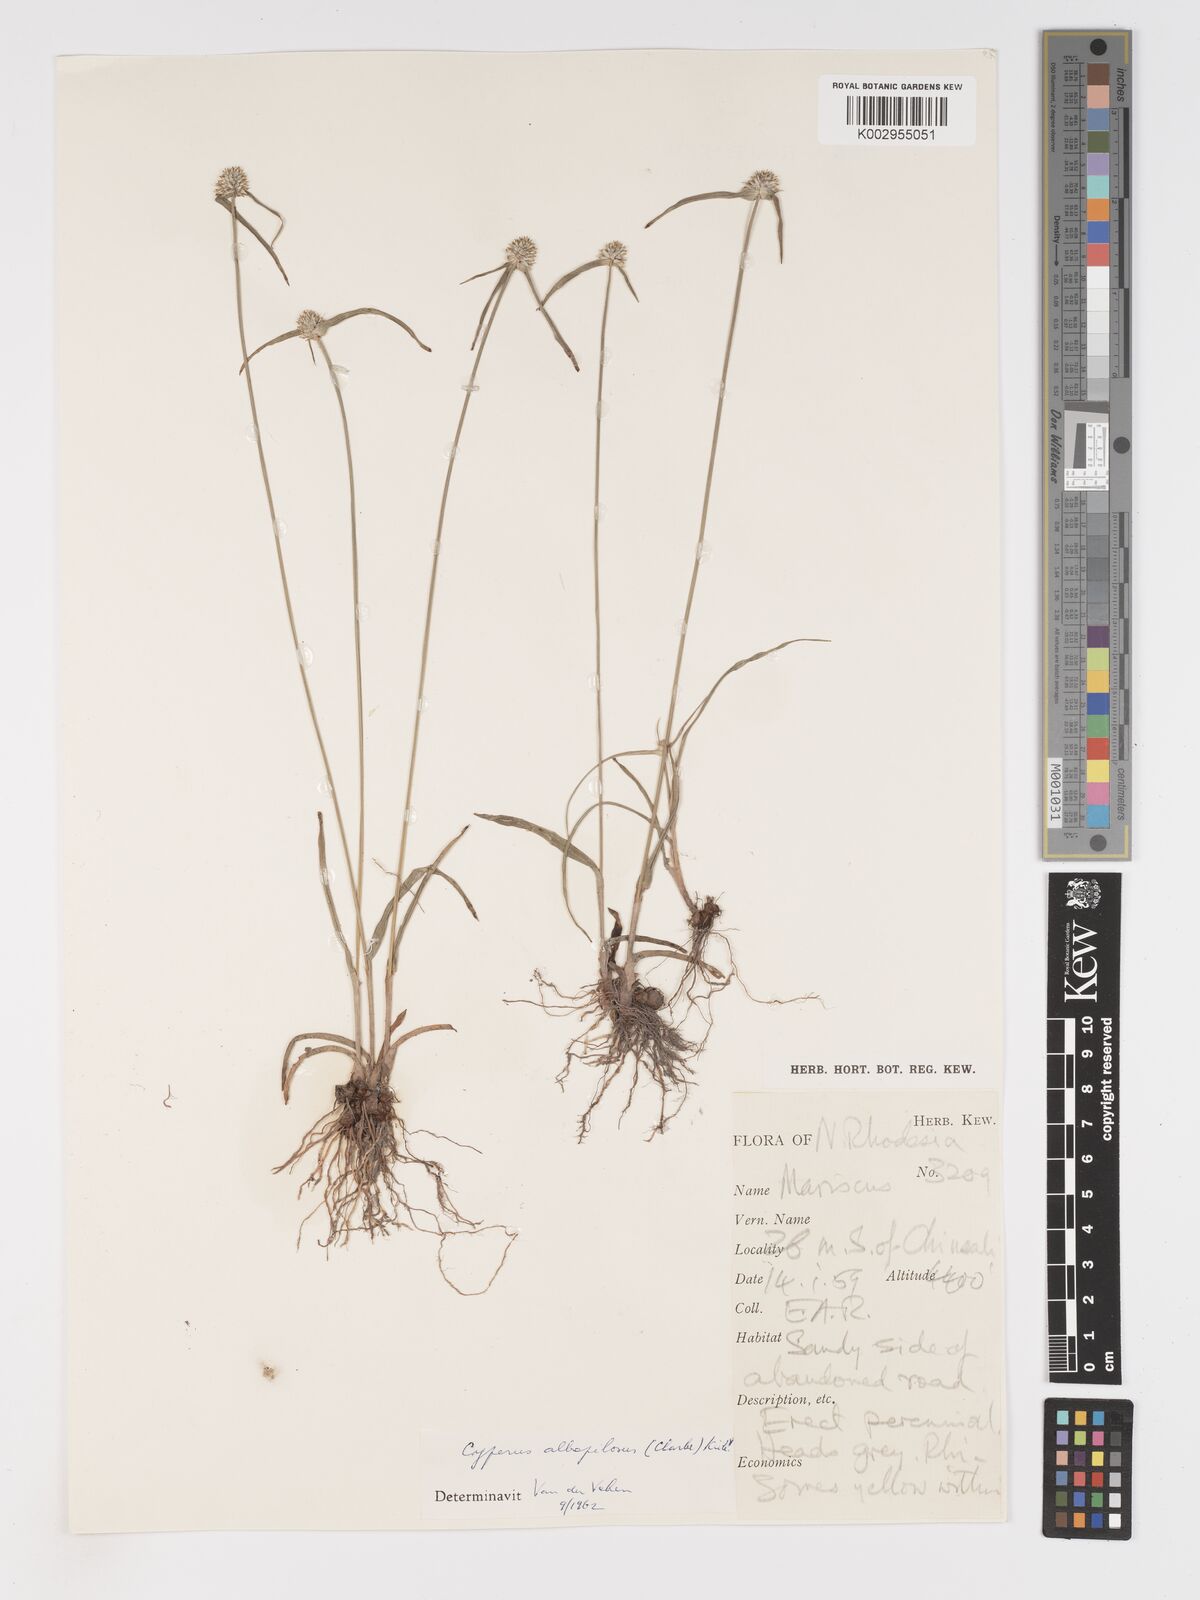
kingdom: Plantae
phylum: Tracheophyta
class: Liliopsida
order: Poales
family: Cyperaceae
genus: Cyperus
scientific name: Cyperus albopilosus
